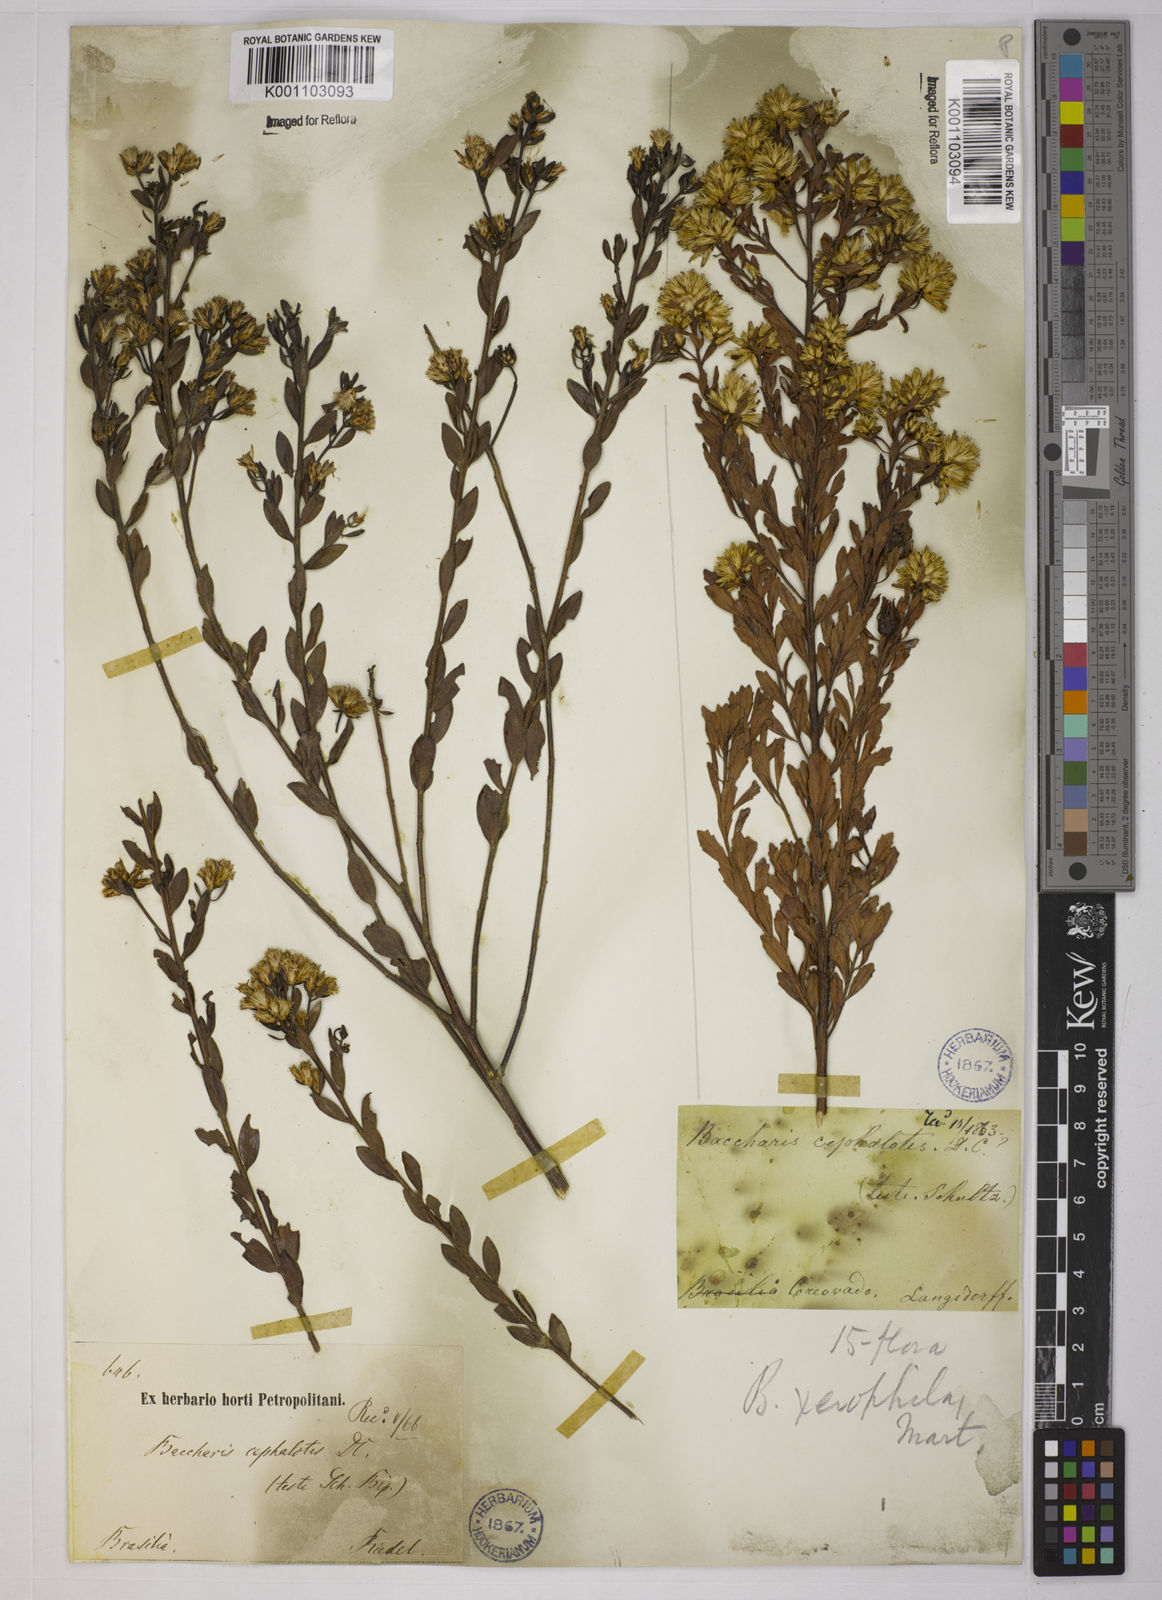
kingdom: Plantae
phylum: Tracheophyta
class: Magnoliopsida
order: Asterales
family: Asteraceae
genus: Baccharis
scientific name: Baccharis sessiliflora
